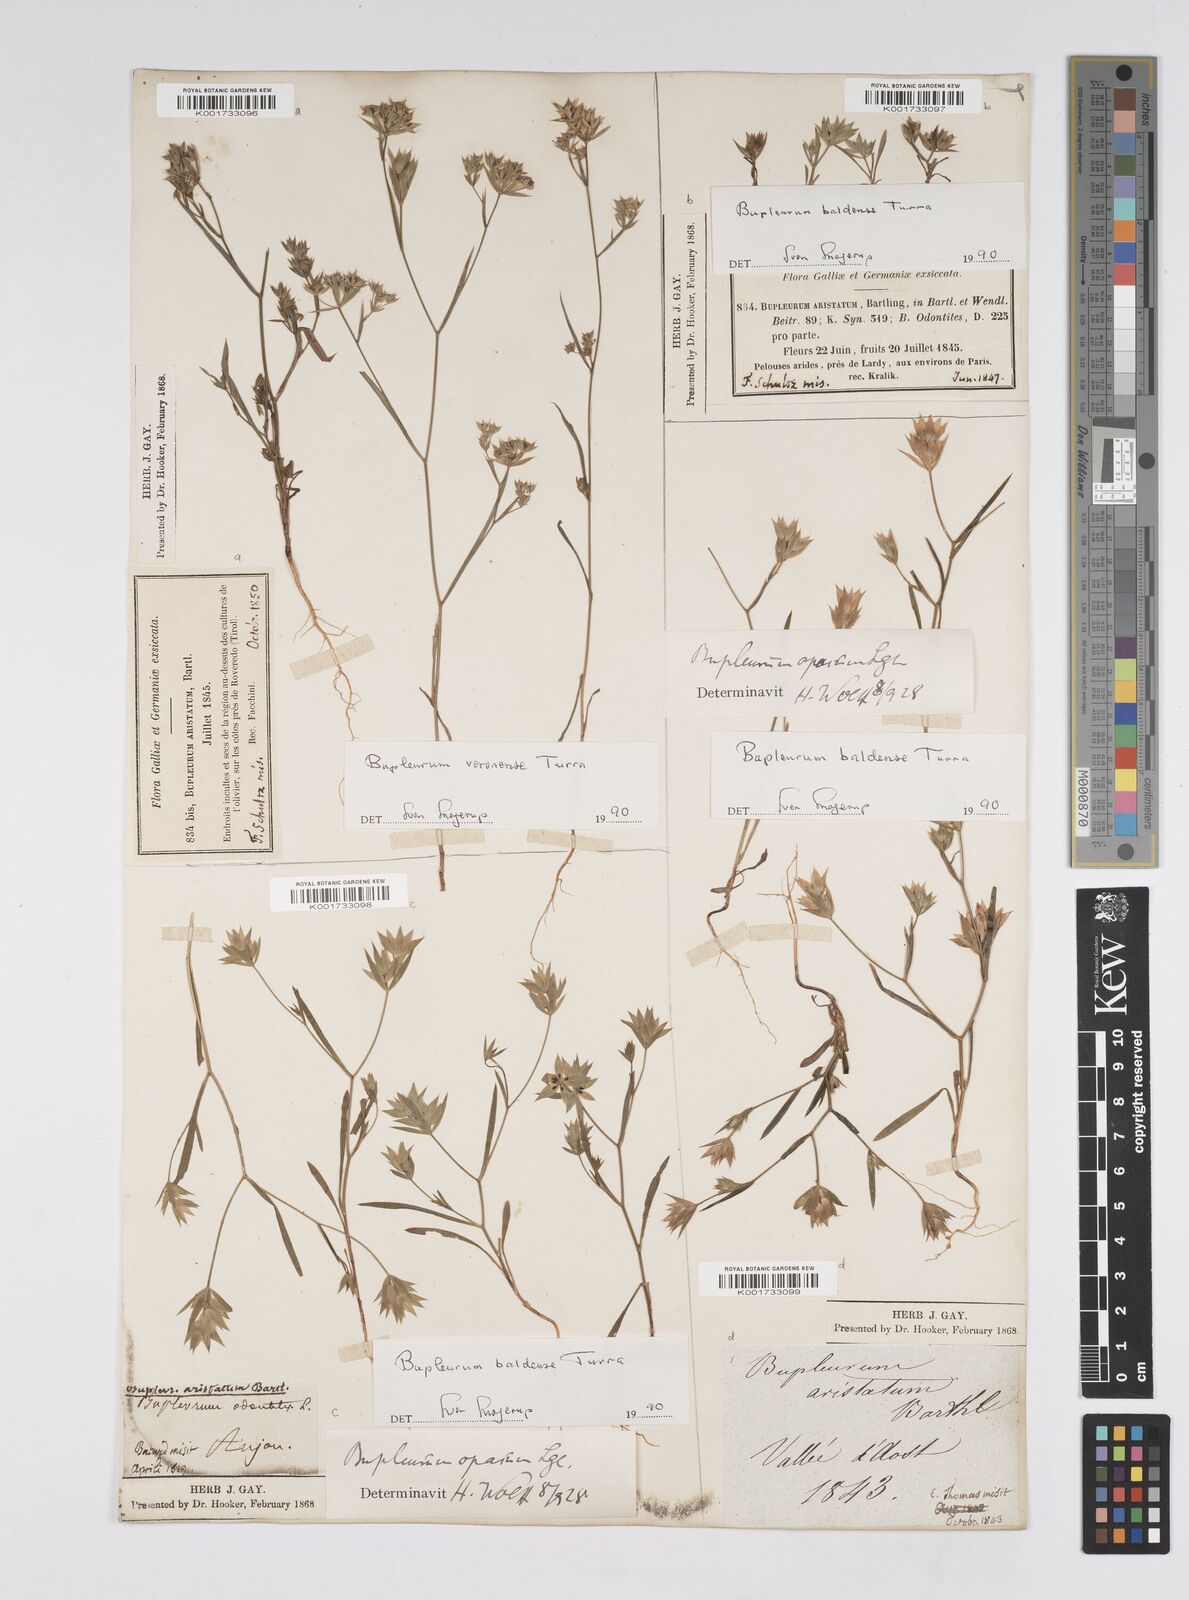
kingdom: Plantae
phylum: Tracheophyta
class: Magnoliopsida
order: Apiales
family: Apiaceae
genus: Bupleurum
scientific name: Bupleurum baldense
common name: Small hare's-ear
